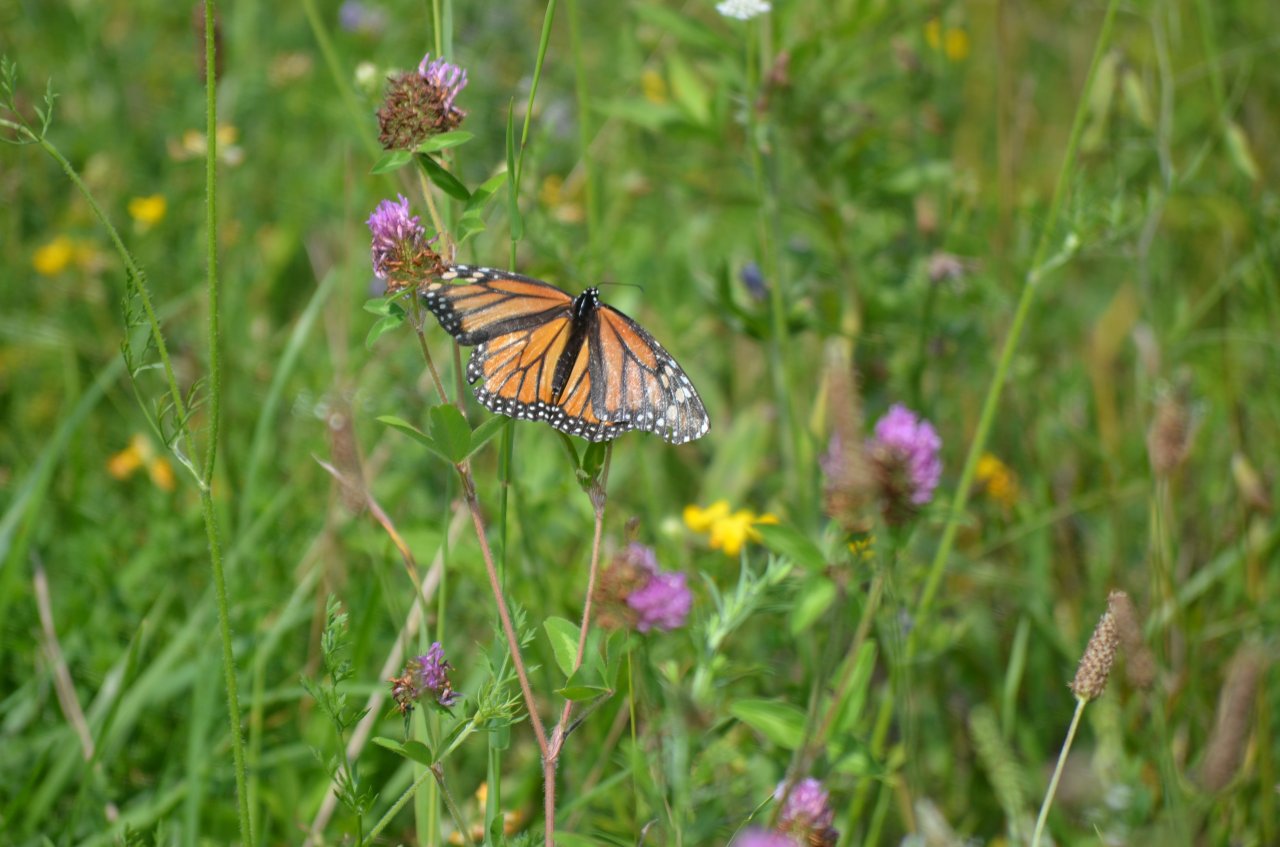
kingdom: Animalia
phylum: Arthropoda
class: Insecta
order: Lepidoptera
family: Nymphalidae
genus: Danaus
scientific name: Danaus plexippus
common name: Monarch
